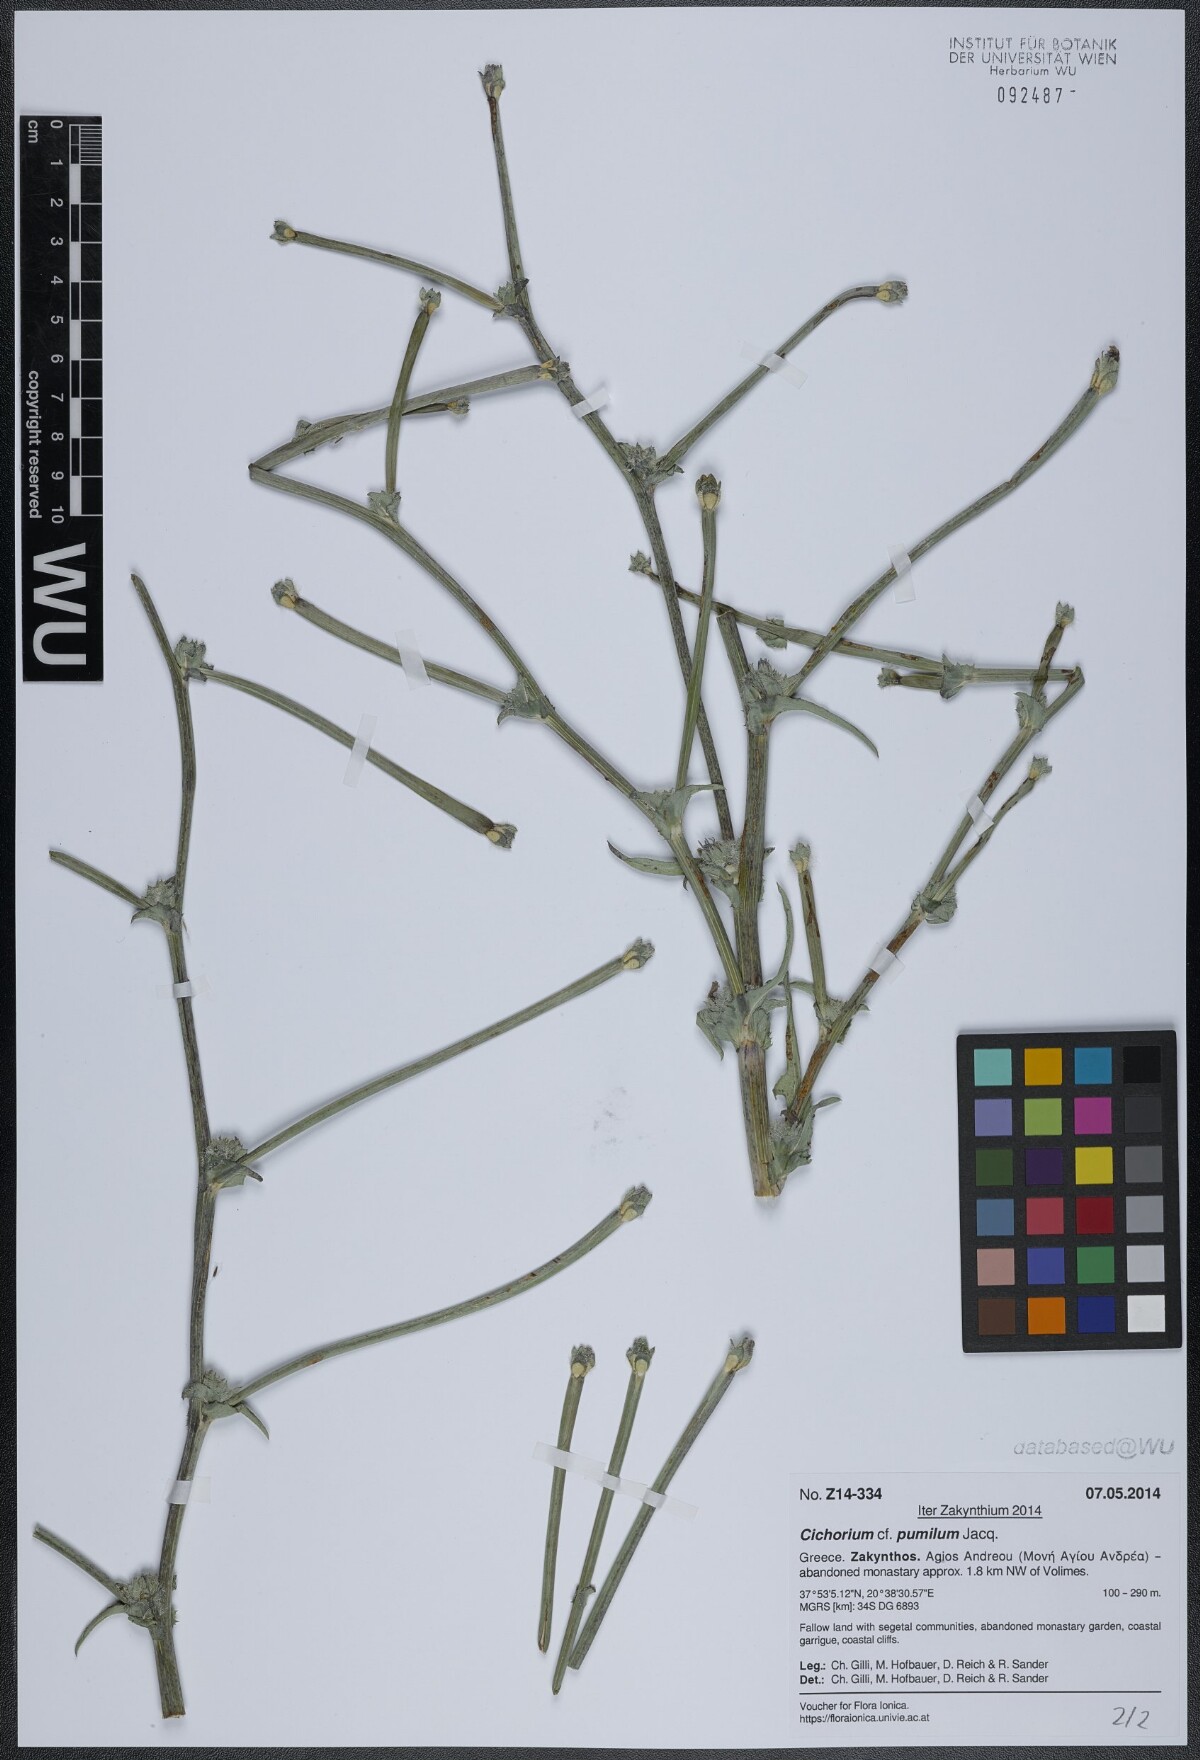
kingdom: Plantae
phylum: Tracheophyta
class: Magnoliopsida
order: Asterales
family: Asteraceae
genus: Cichorium
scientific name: Cichorium pumilum
